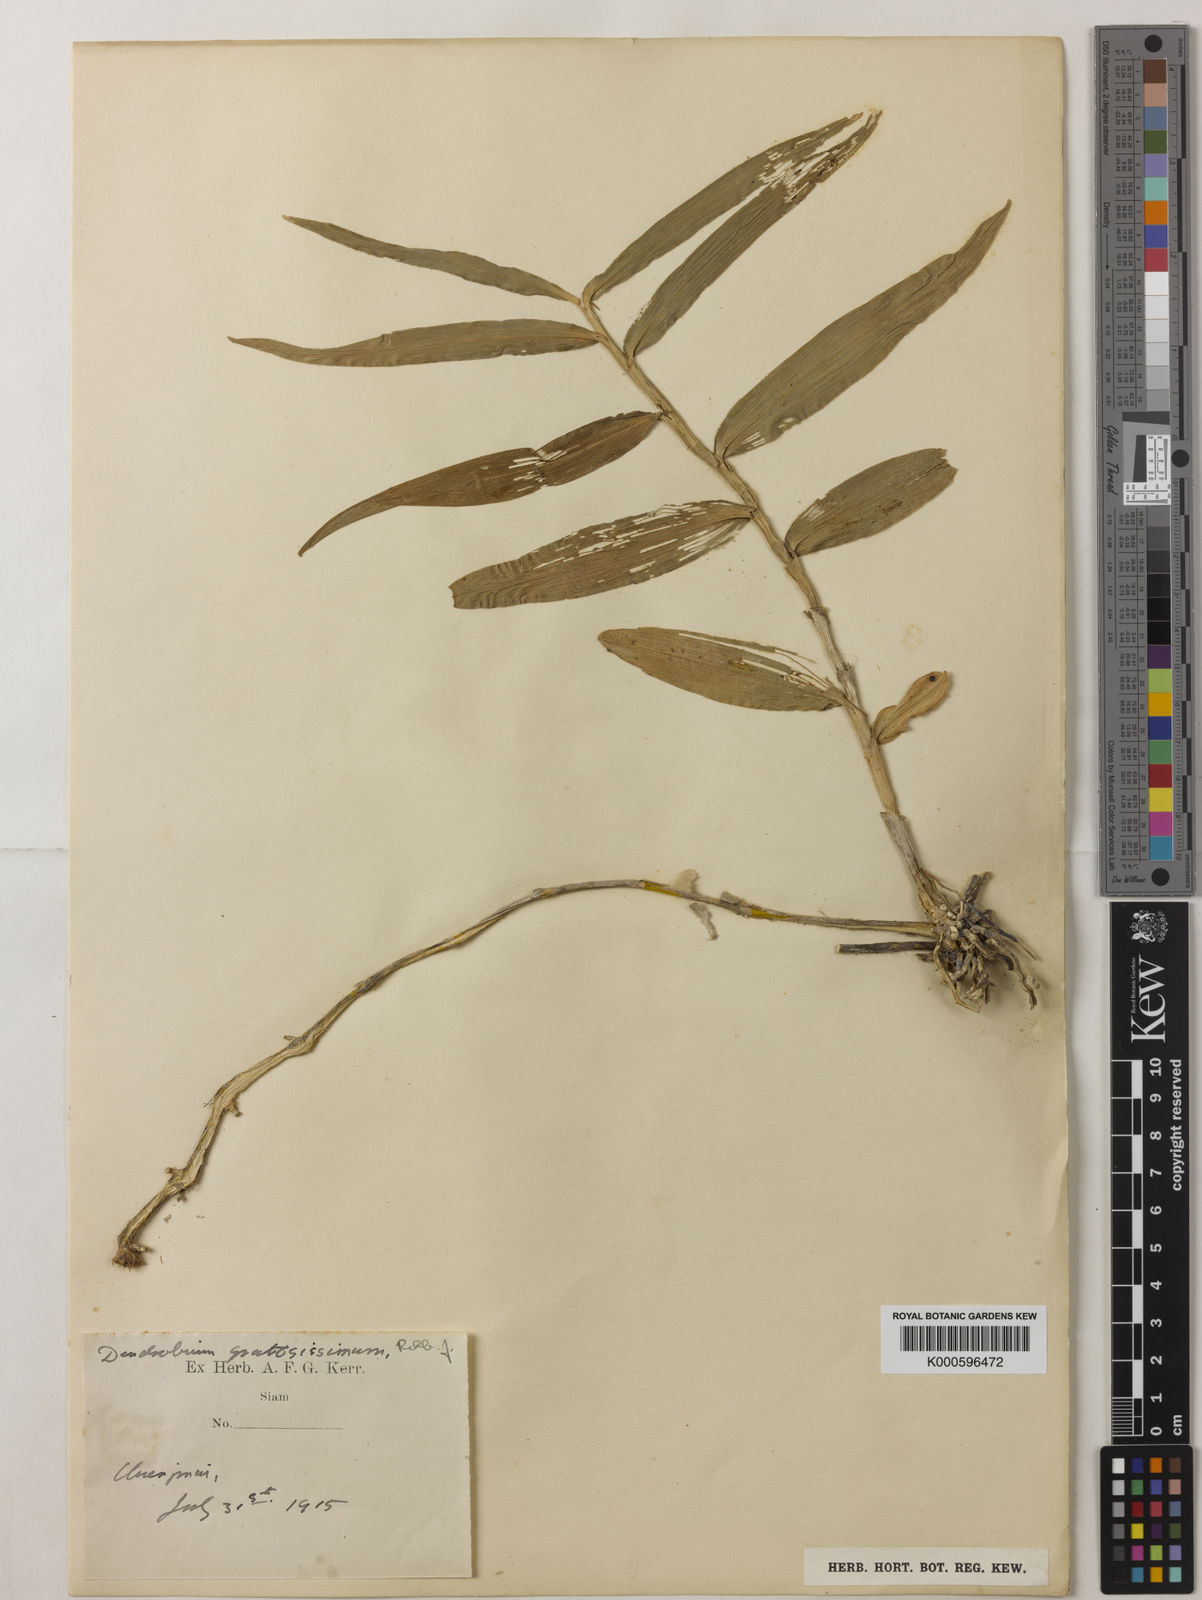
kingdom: Plantae
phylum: Tracheophyta
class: Liliopsida
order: Asparagales
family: Orchidaceae
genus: Dendrobium
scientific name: Dendrobium gratiosissimum
